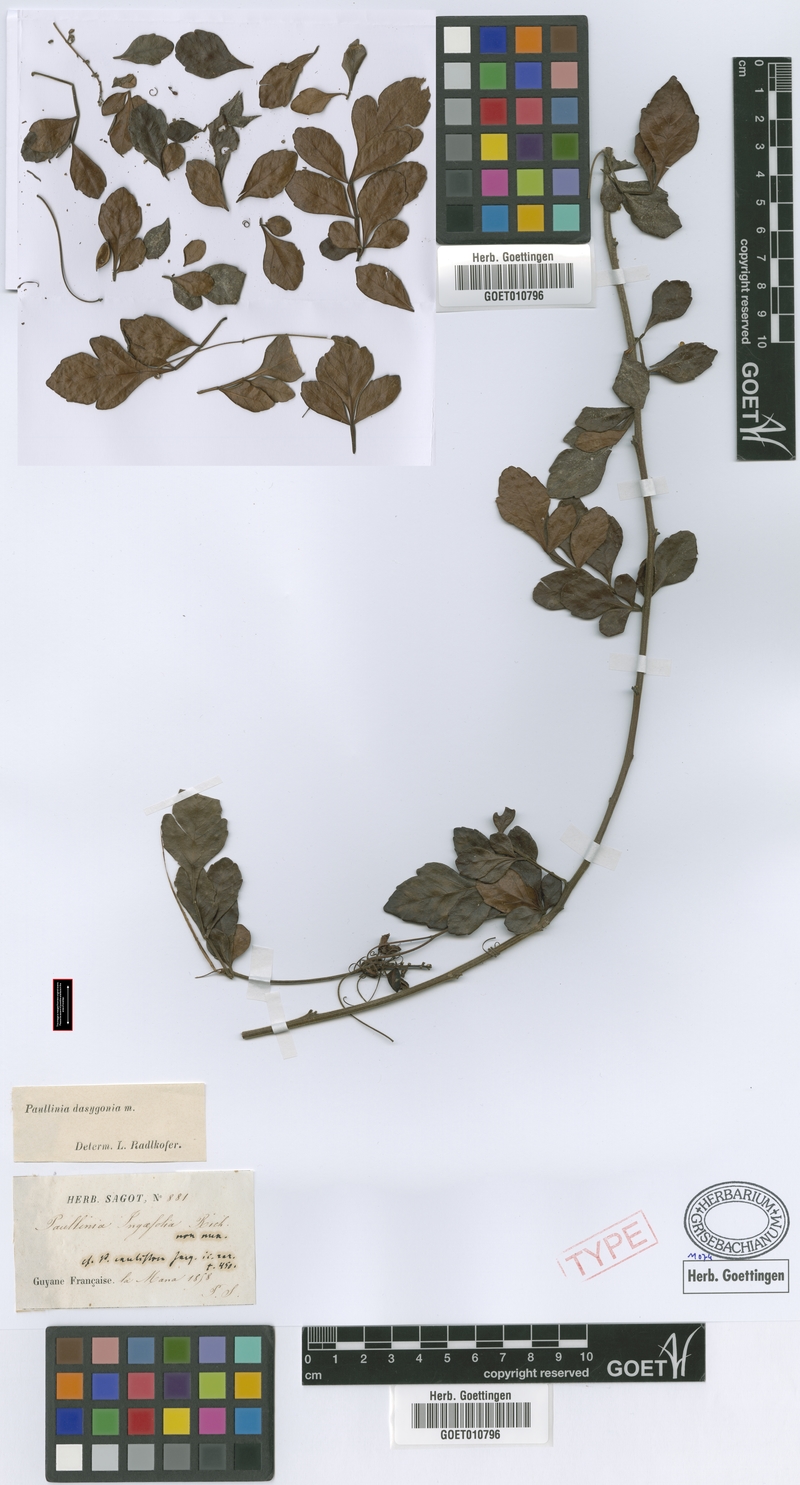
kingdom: Plantae
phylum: Tracheophyta
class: Magnoliopsida
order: Sapindales
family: Sapindaceae
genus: Paullinia
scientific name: Paullinia dasygonia
